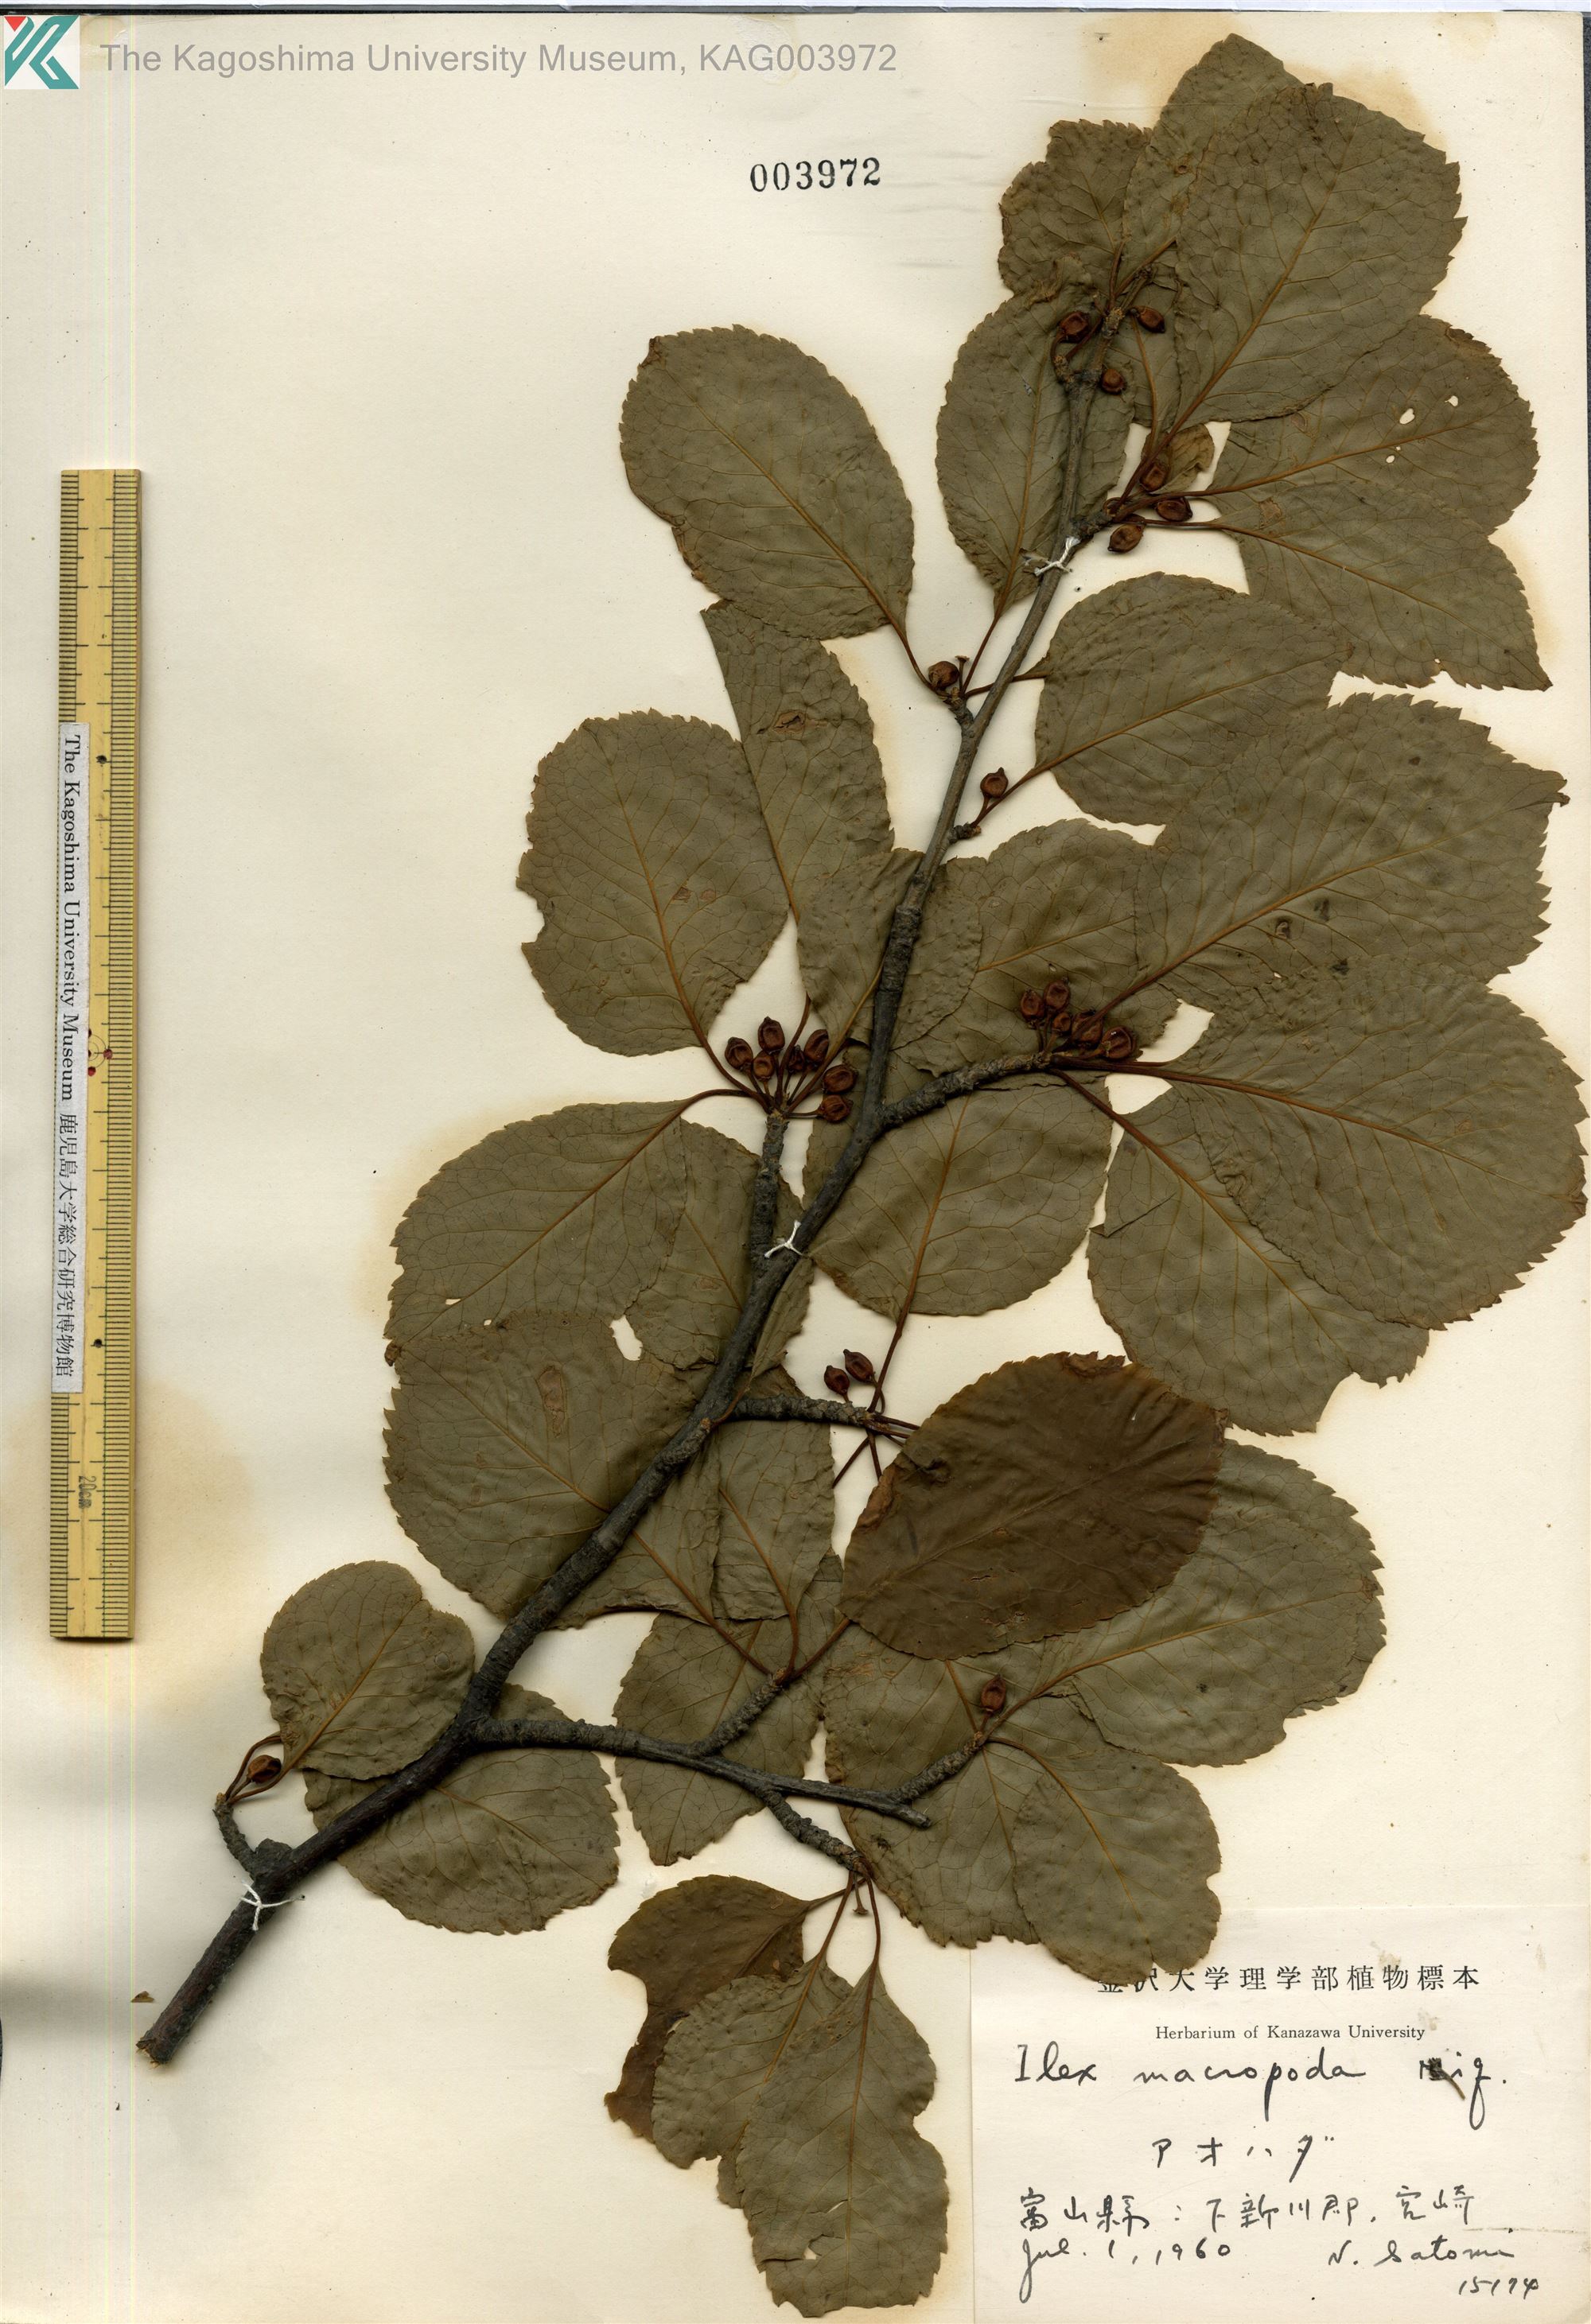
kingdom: Plantae
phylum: Tracheophyta
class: Magnoliopsida
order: Aquifoliales
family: Aquifoliaceae
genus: Ilex
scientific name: Ilex macropoda
